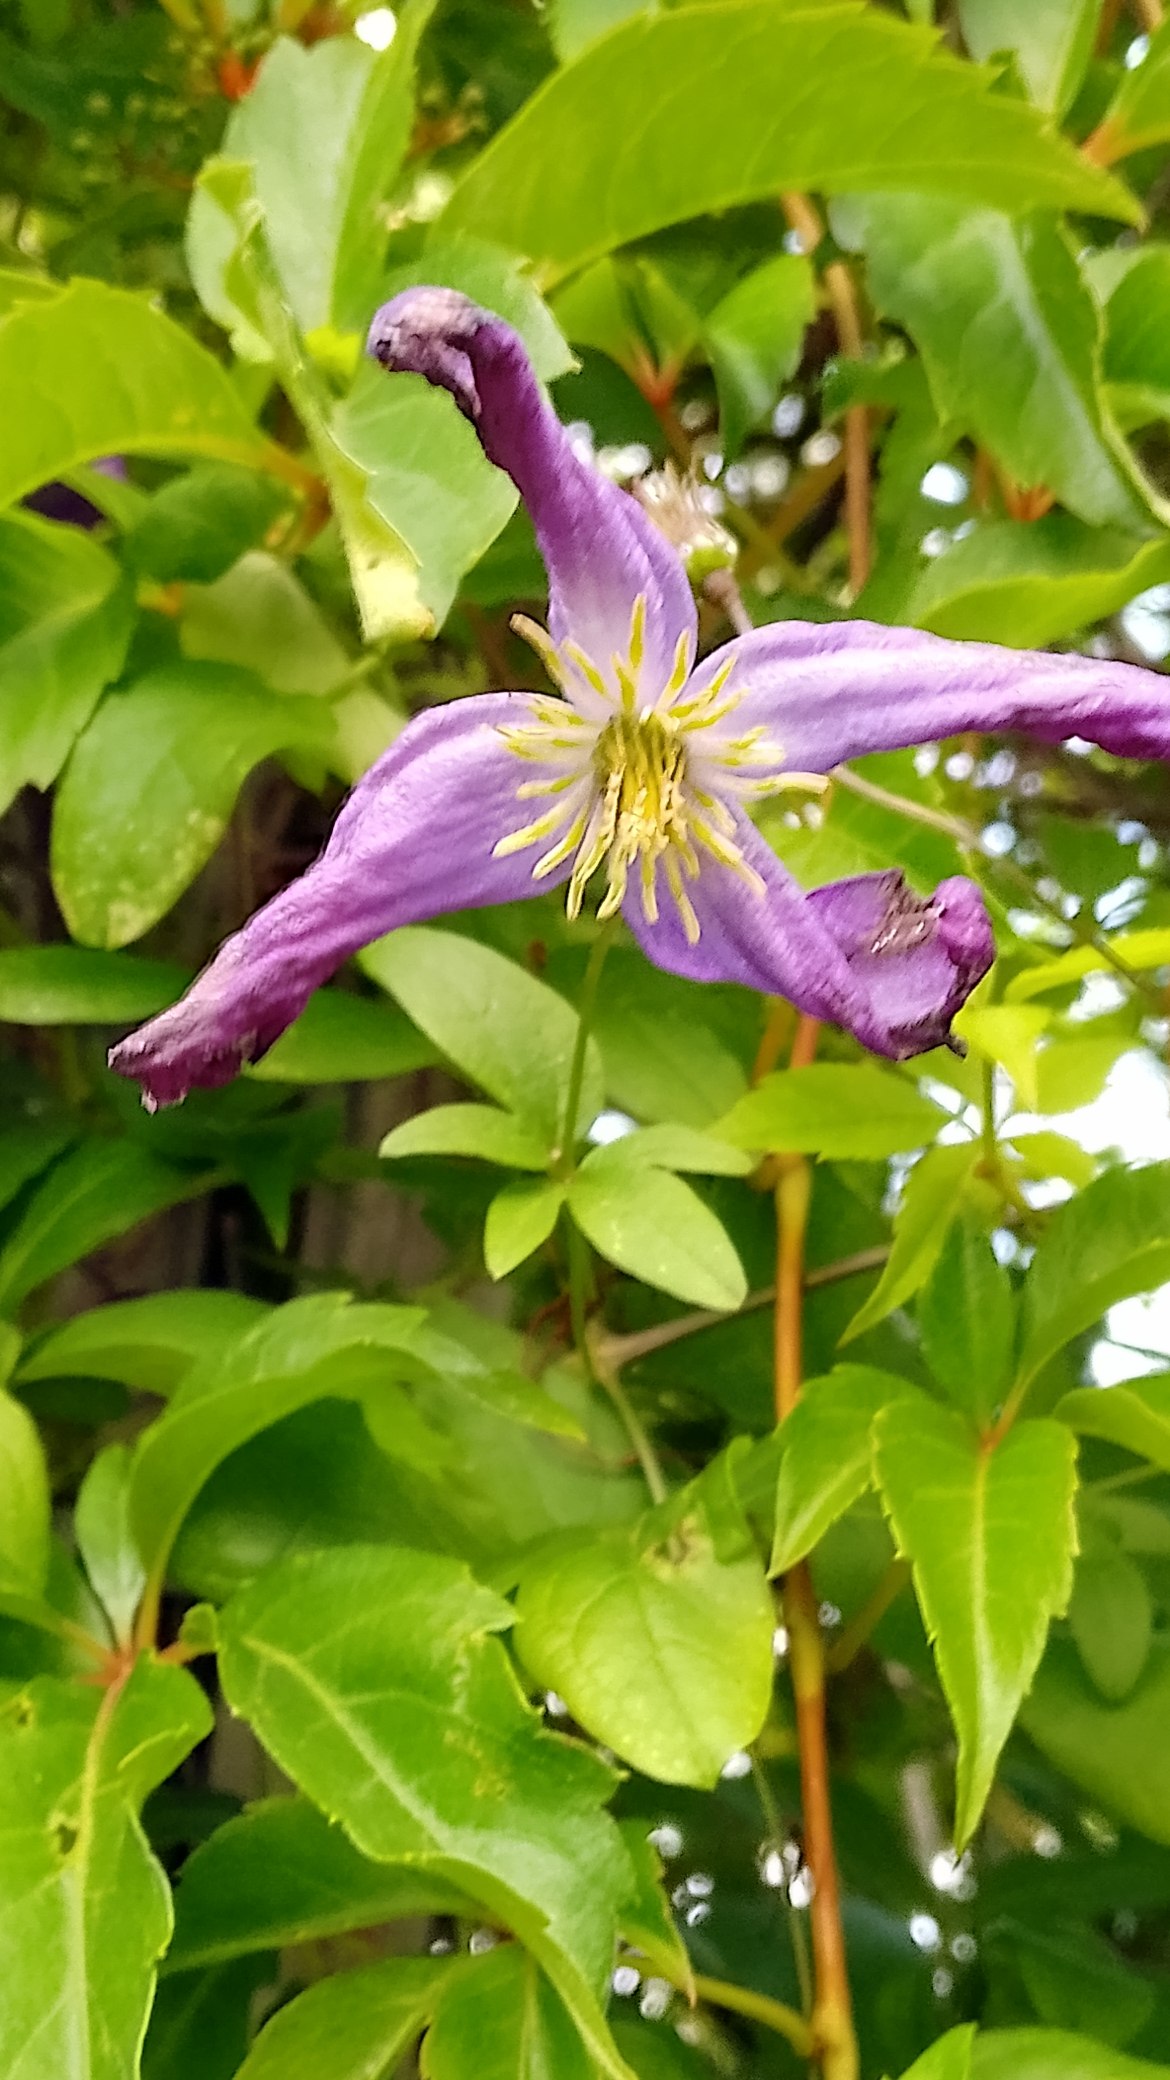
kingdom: Plantae
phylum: Tracheophyta
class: Magnoliopsida
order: Ranunculales
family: Ranunculaceae
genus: Clematis
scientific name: Clematis viticella
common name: Italiensk skovranke
